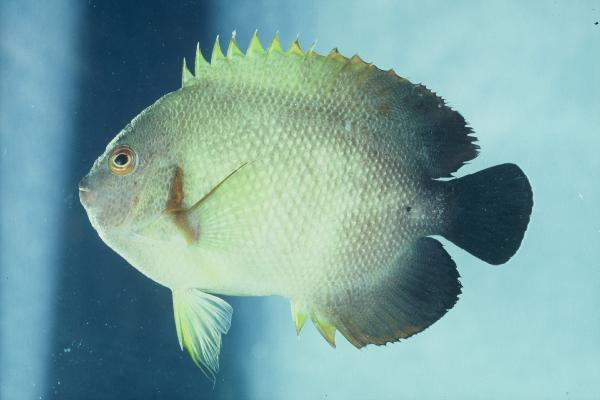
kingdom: Animalia
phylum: Chordata
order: Perciformes
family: Pomacanthidae
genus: Centropyge
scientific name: Centropyge vrolikii
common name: Pearlscale angelfish
